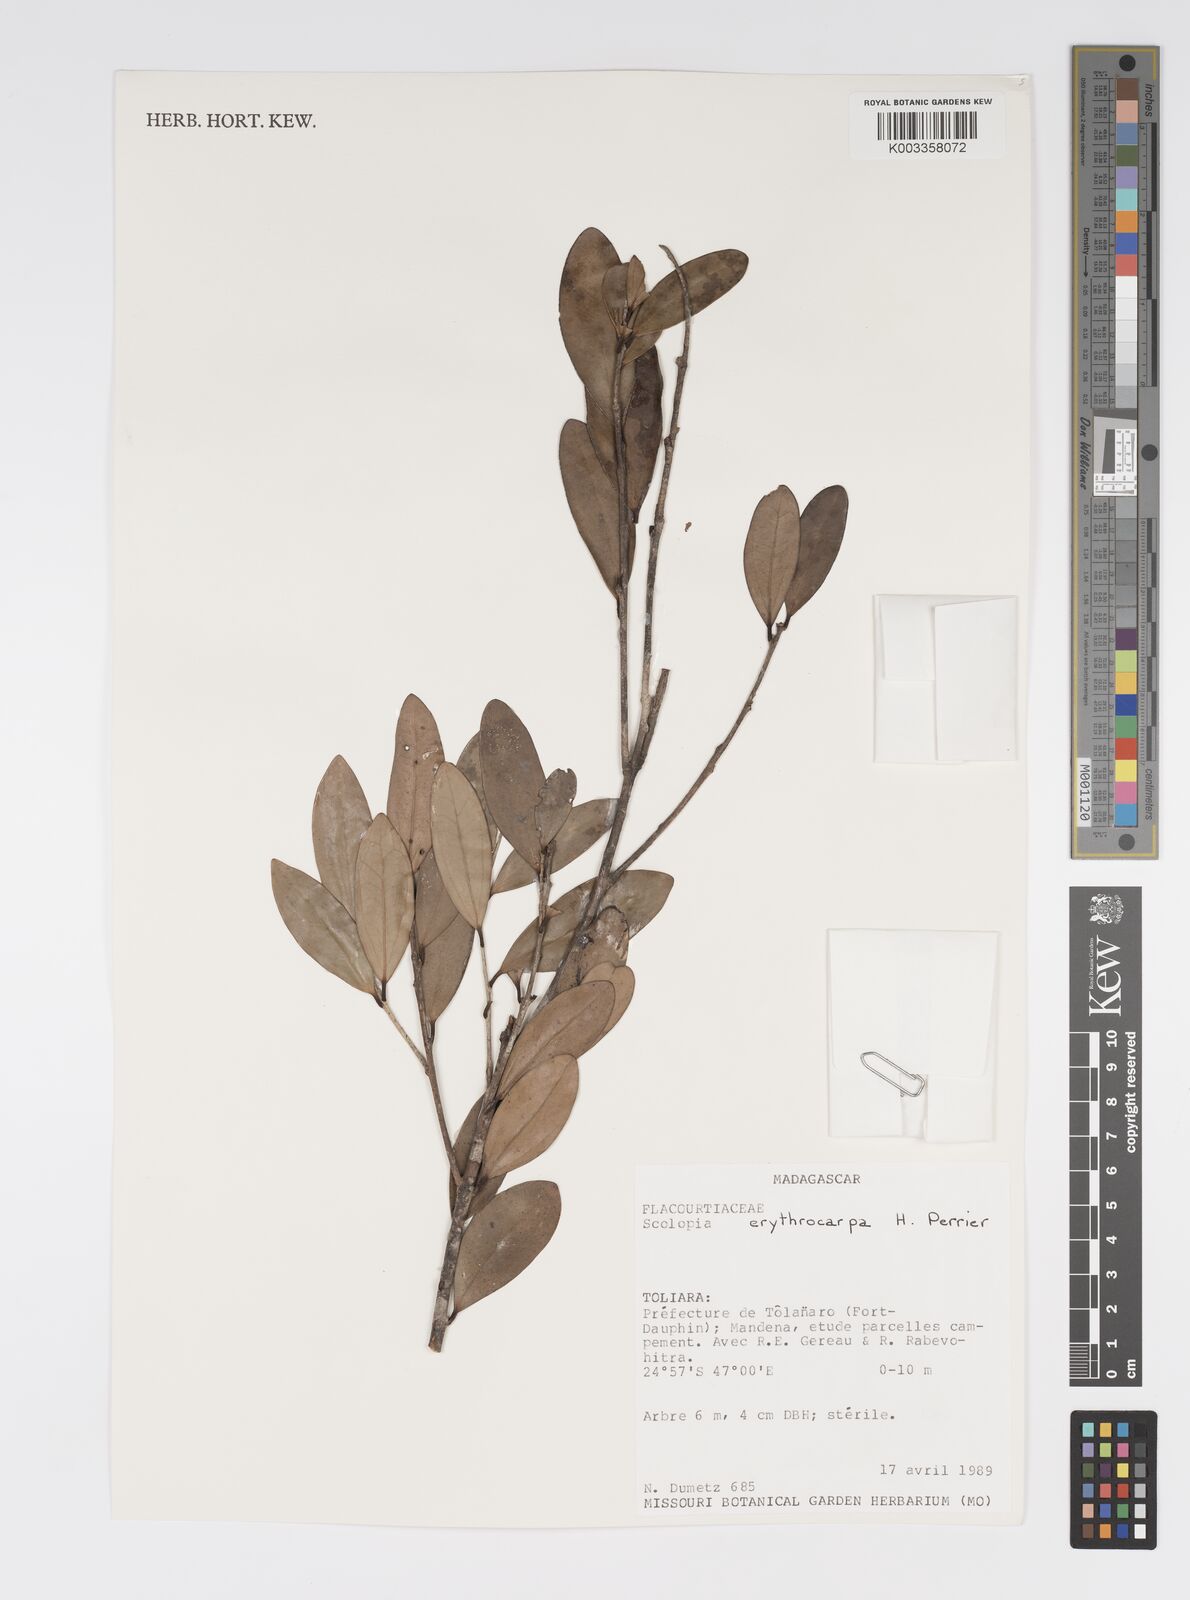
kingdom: Plantae
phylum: Tracheophyta
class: Magnoliopsida
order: Malpighiales
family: Salicaceae
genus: Scolopia
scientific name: Scolopia erythrocarpa
